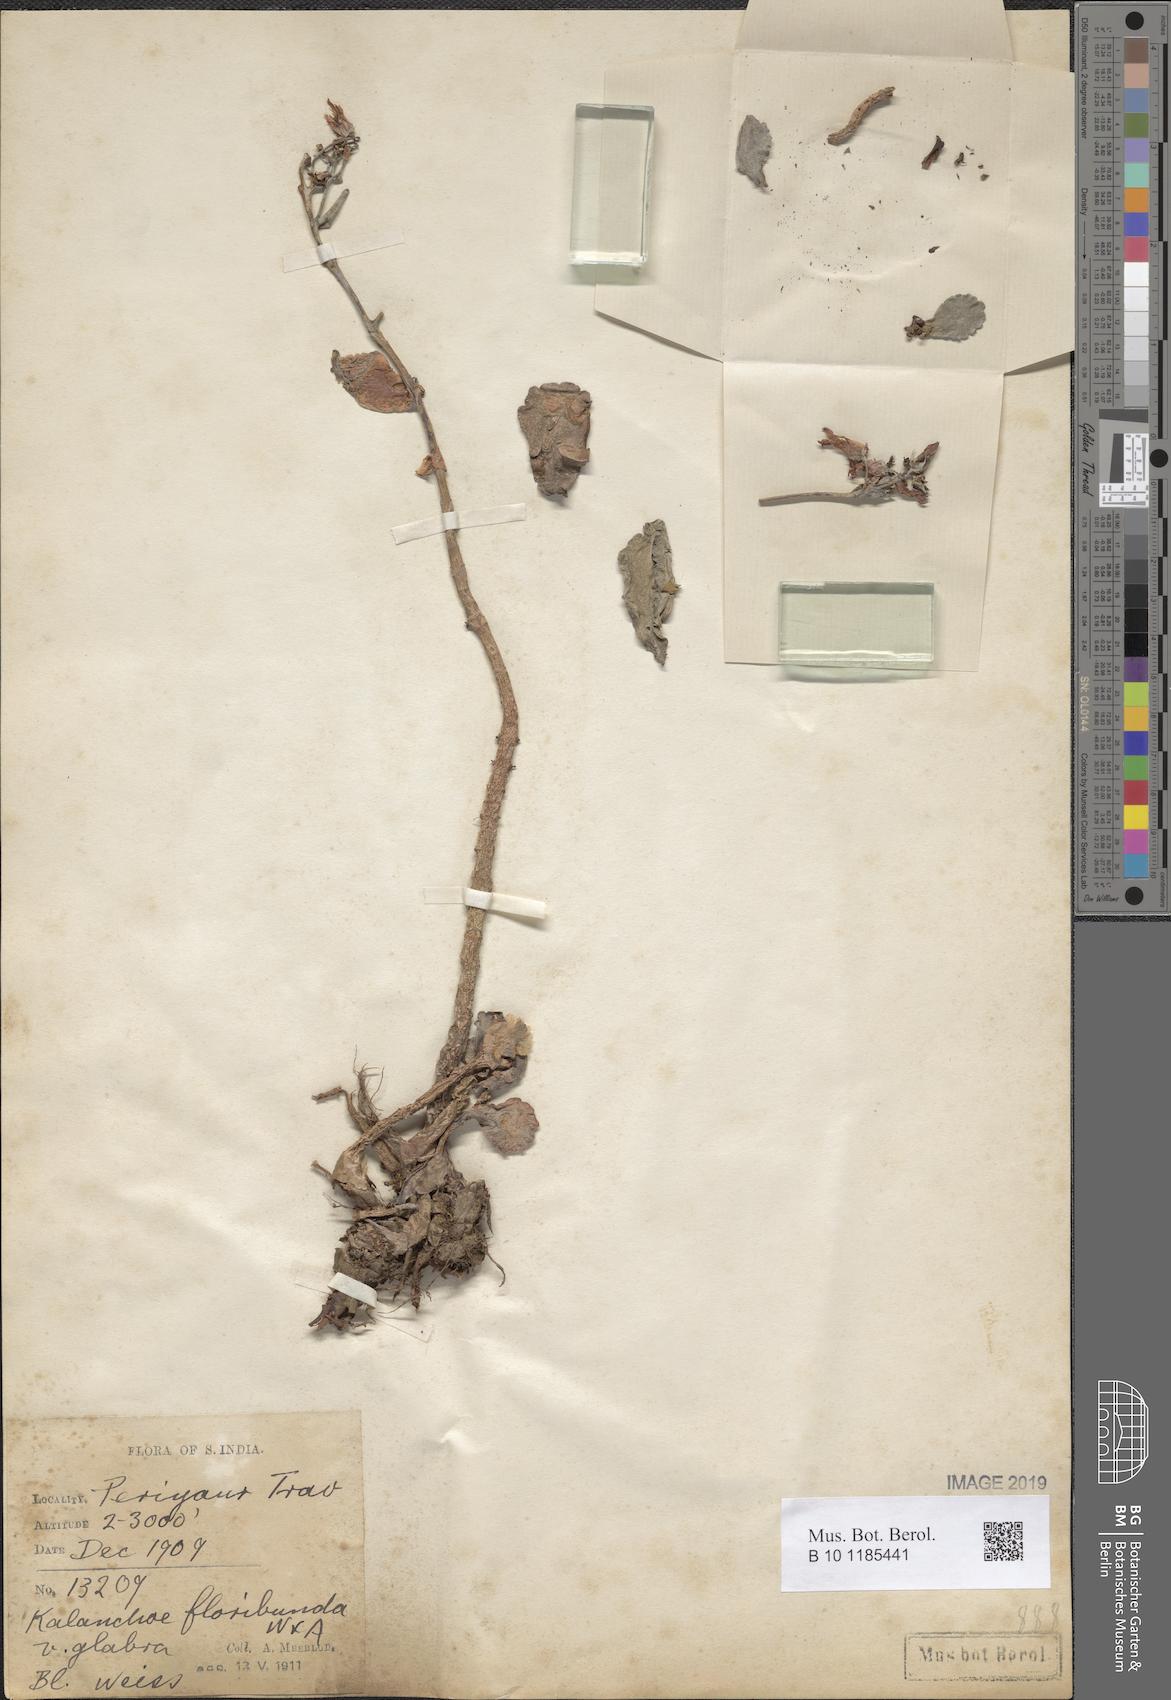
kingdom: Plantae
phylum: Tracheophyta
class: Magnoliopsida
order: Saxifragales
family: Crassulaceae
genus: Kalanchoe
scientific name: Kalanchoe floribunda
